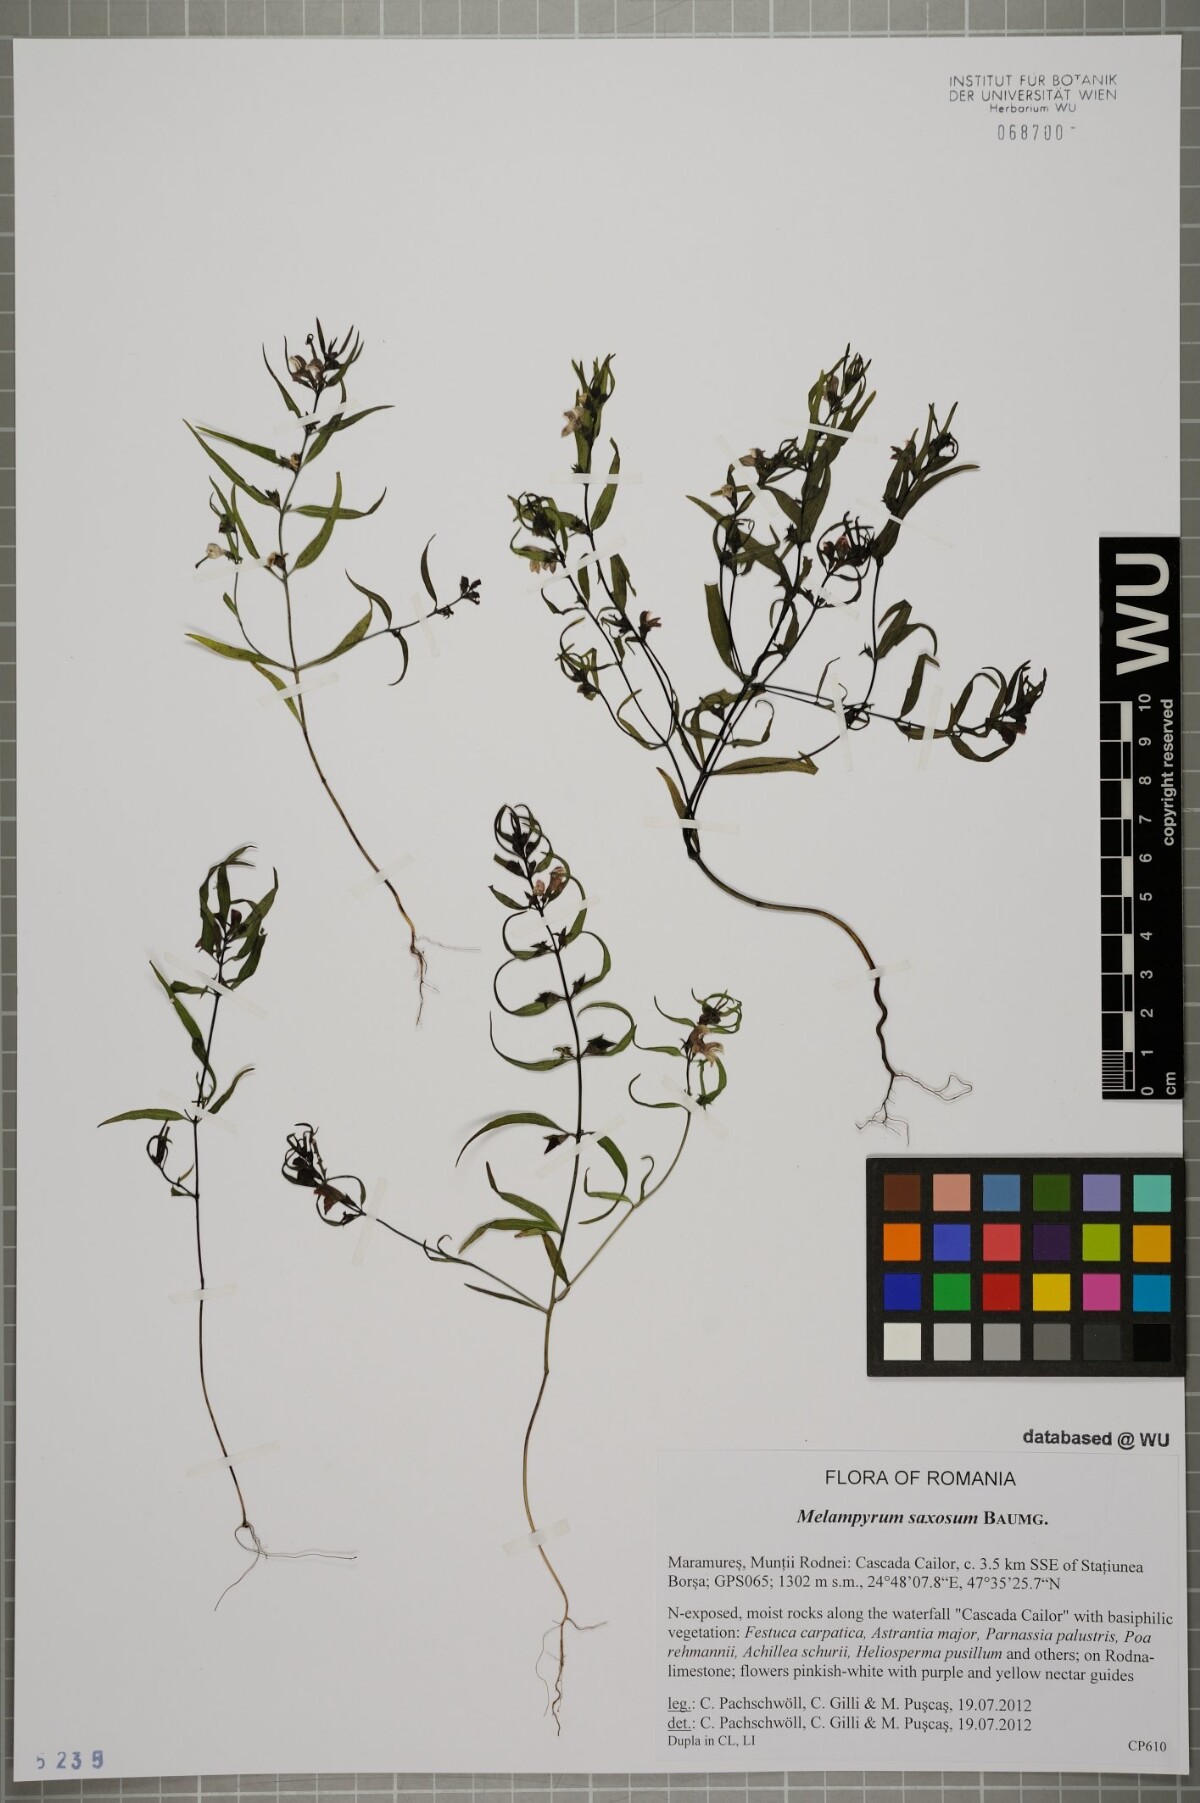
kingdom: Plantae
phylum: Tracheophyta
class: Magnoliopsida
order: Lamiales
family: Orobanchaceae
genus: Melampyrum
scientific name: Melampyrum saxosum
